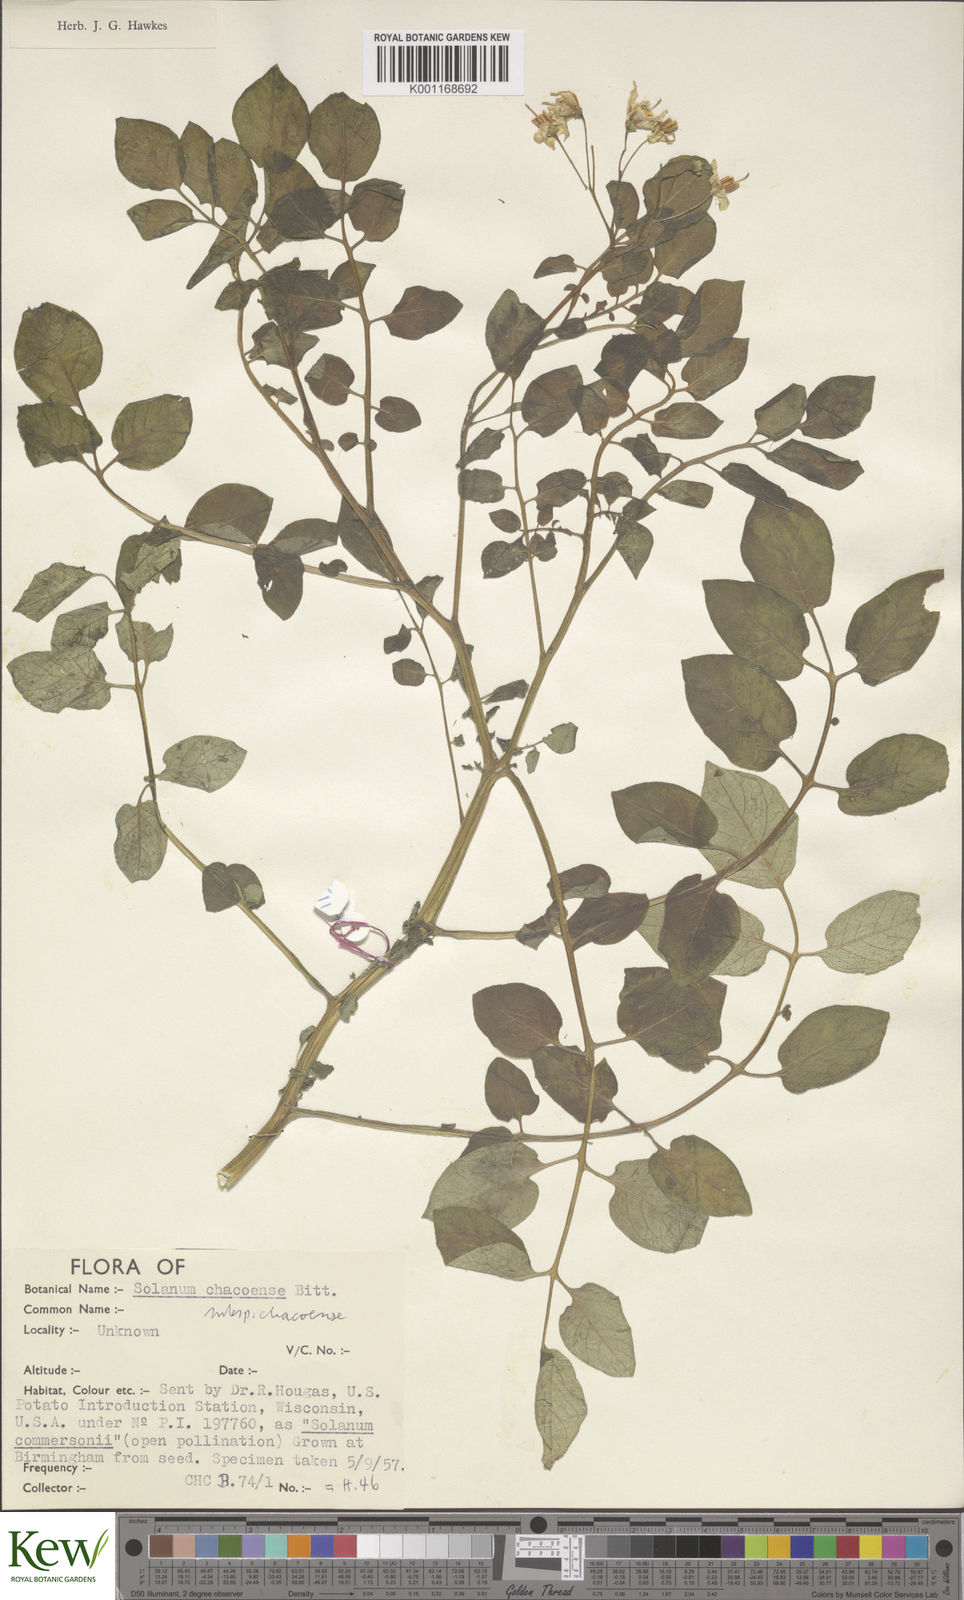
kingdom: Plantae
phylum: Tracheophyta
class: Magnoliopsida
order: Solanales
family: Solanaceae
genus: Solanum
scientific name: Solanum chacoense
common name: Chaco potato
